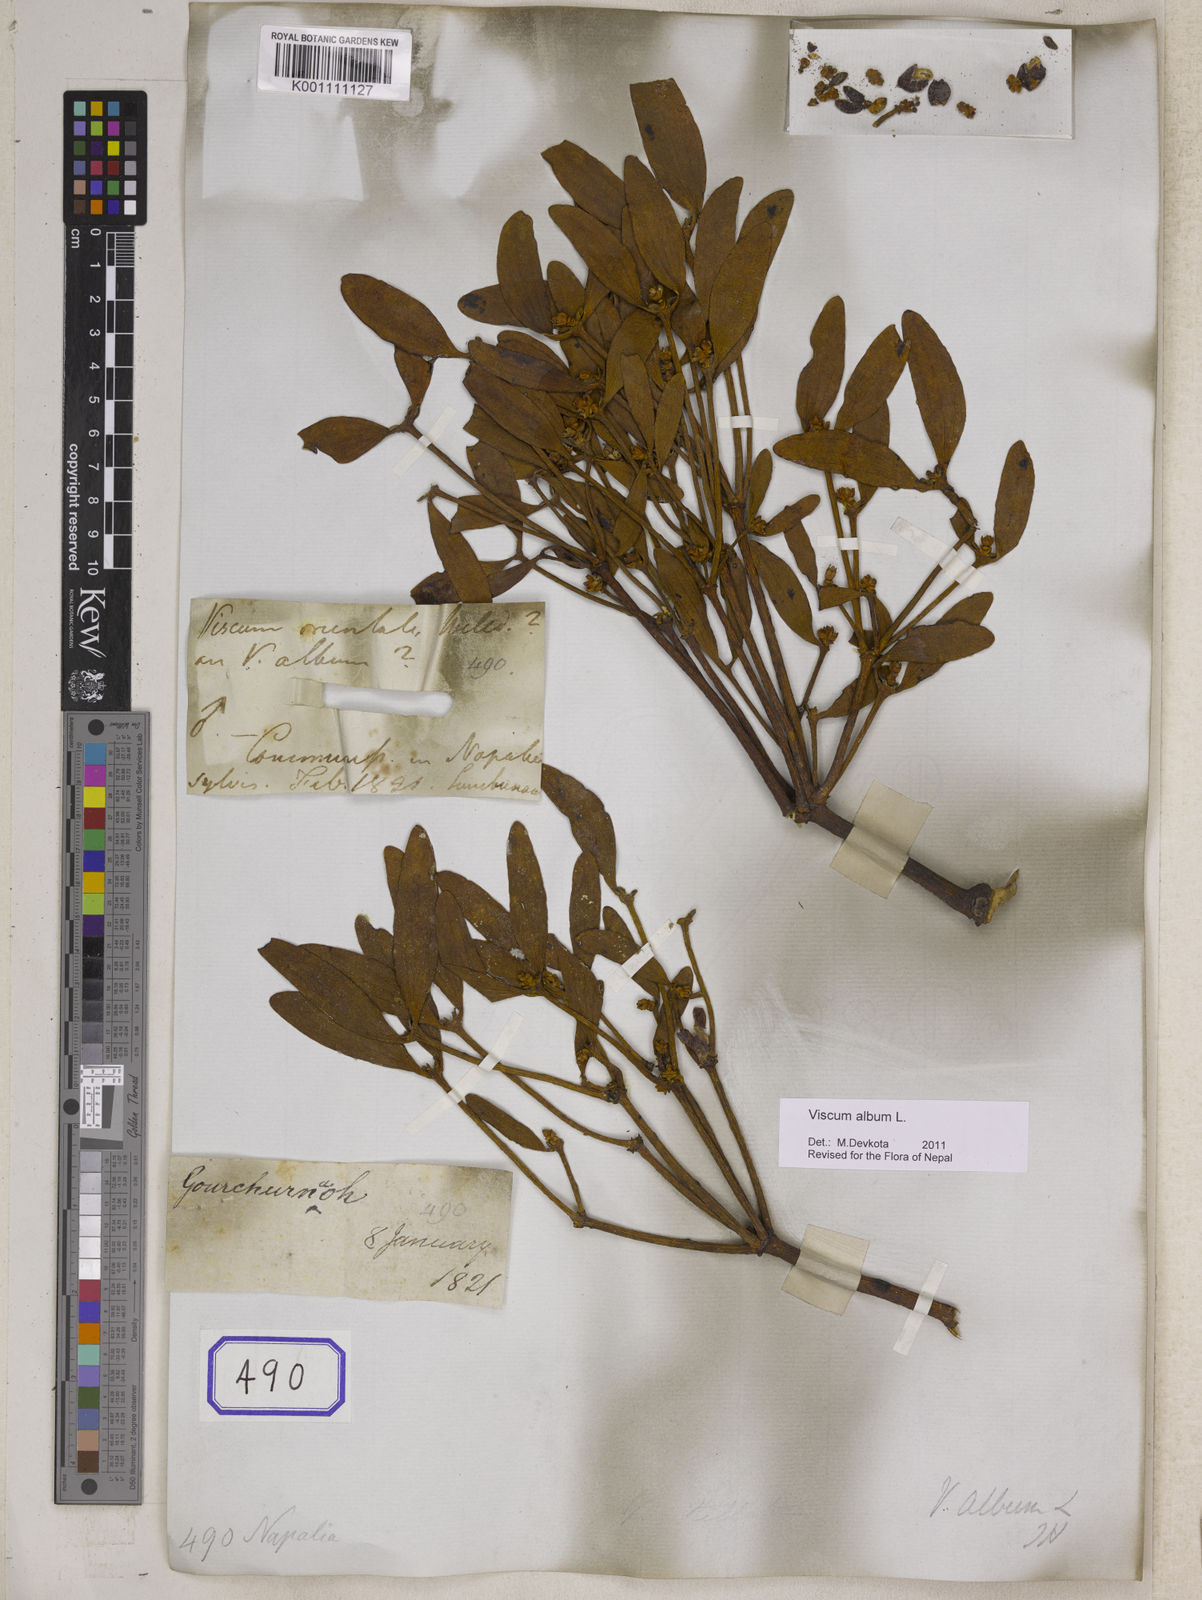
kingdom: Plantae
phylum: Tracheophyta
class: Magnoliopsida
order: Santalales
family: Viscaceae
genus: Viscum
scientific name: Viscum album
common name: Mistletoe
